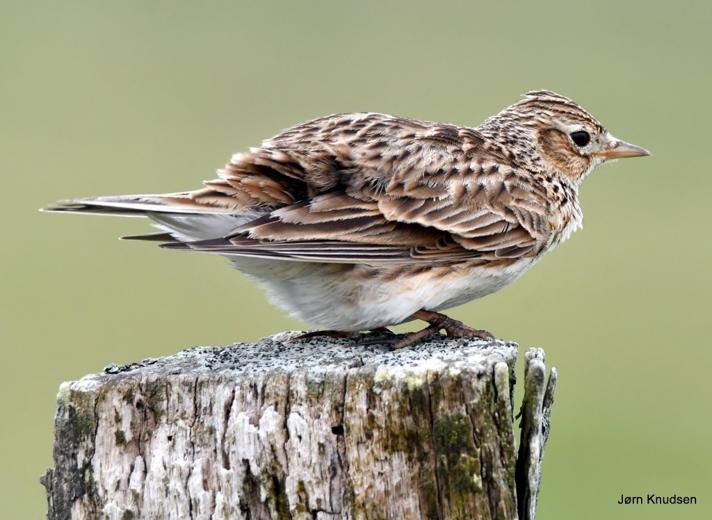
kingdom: Animalia
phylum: Chordata
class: Aves
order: Passeriformes
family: Alaudidae
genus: Alauda
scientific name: Alauda arvensis
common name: Sanglærke
